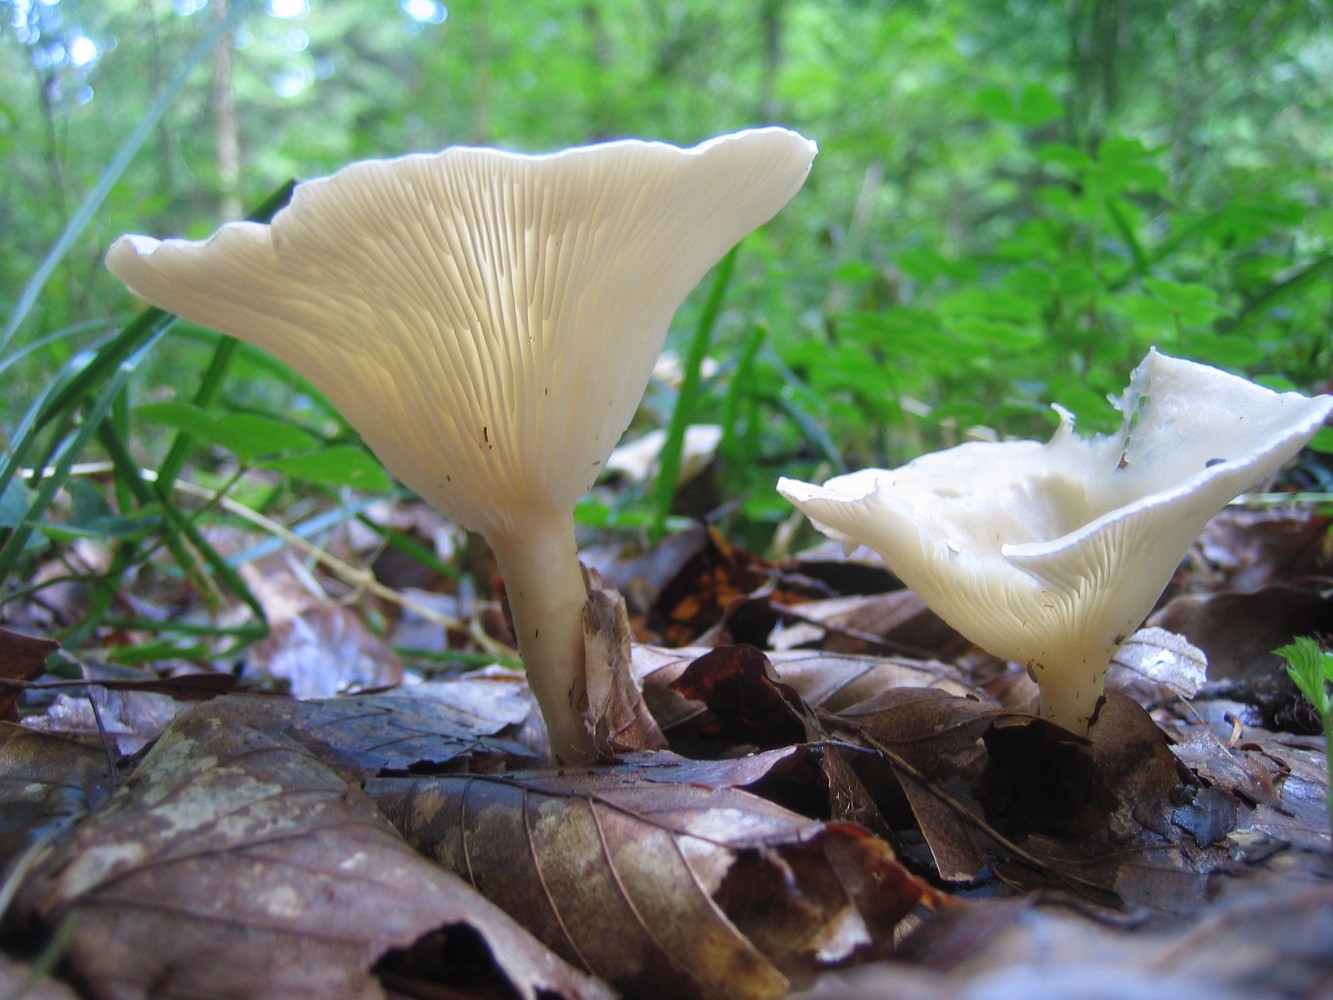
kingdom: Fungi
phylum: Basidiomycota
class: Agaricomycetes
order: Agaricales
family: Tricholomataceae
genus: Infundibulicybe
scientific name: Infundibulicybe gibba
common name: almindelig tragthat
